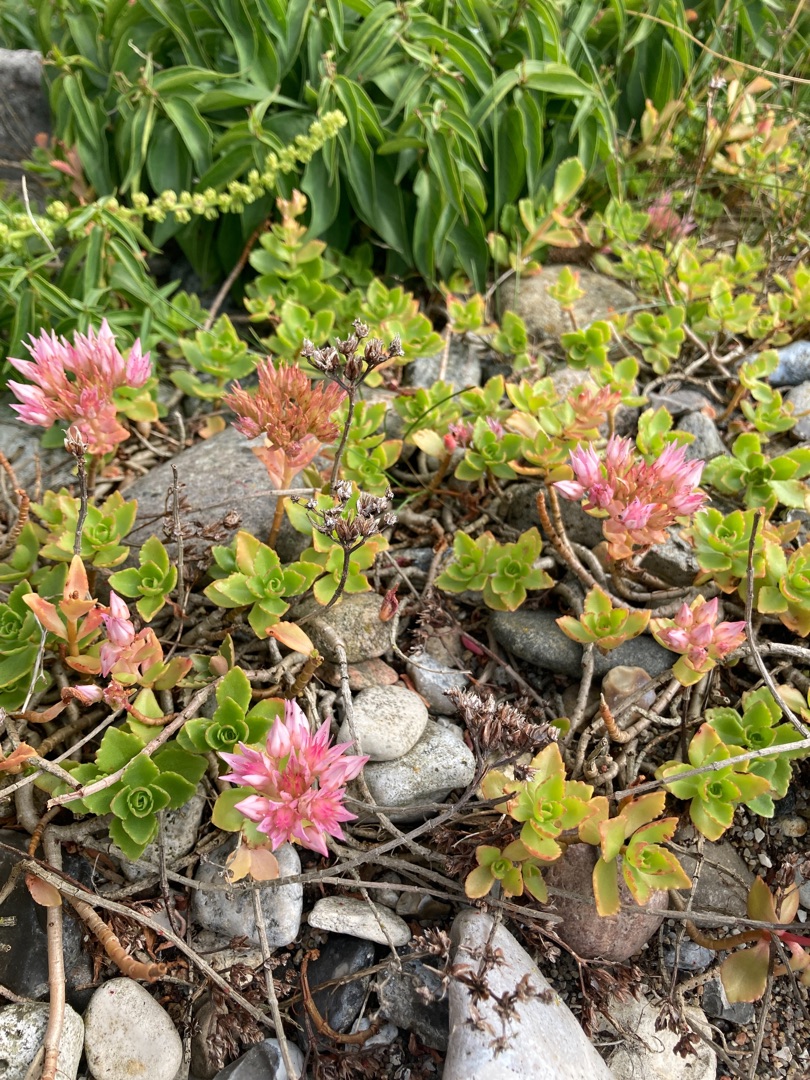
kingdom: Plantae
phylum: Tracheophyta
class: Magnoliopsida
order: Saxifragales
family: Crassulaceae
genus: Phedimus
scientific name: Phedimus spurius
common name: Rød stenurt
